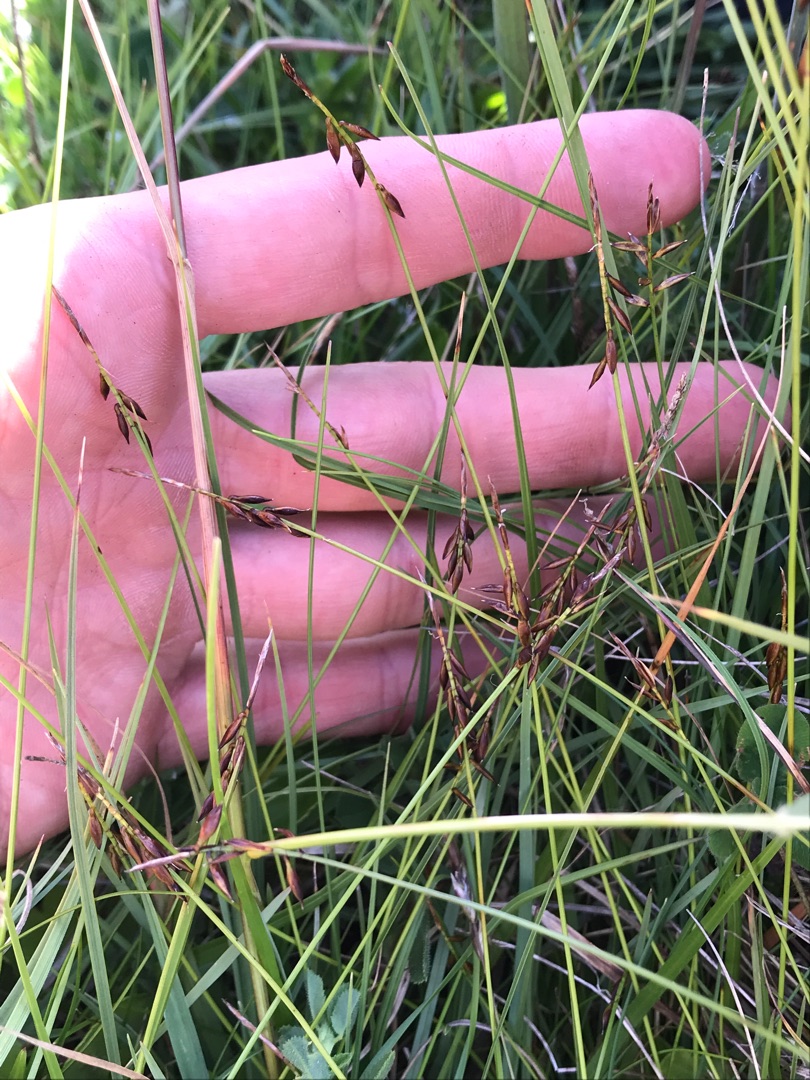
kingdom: Plantae
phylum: Tracheophyta
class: Liliopsida
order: Poales
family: Cyperaceae
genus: Carex
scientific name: Carex pulicaris
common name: Loppe-star
